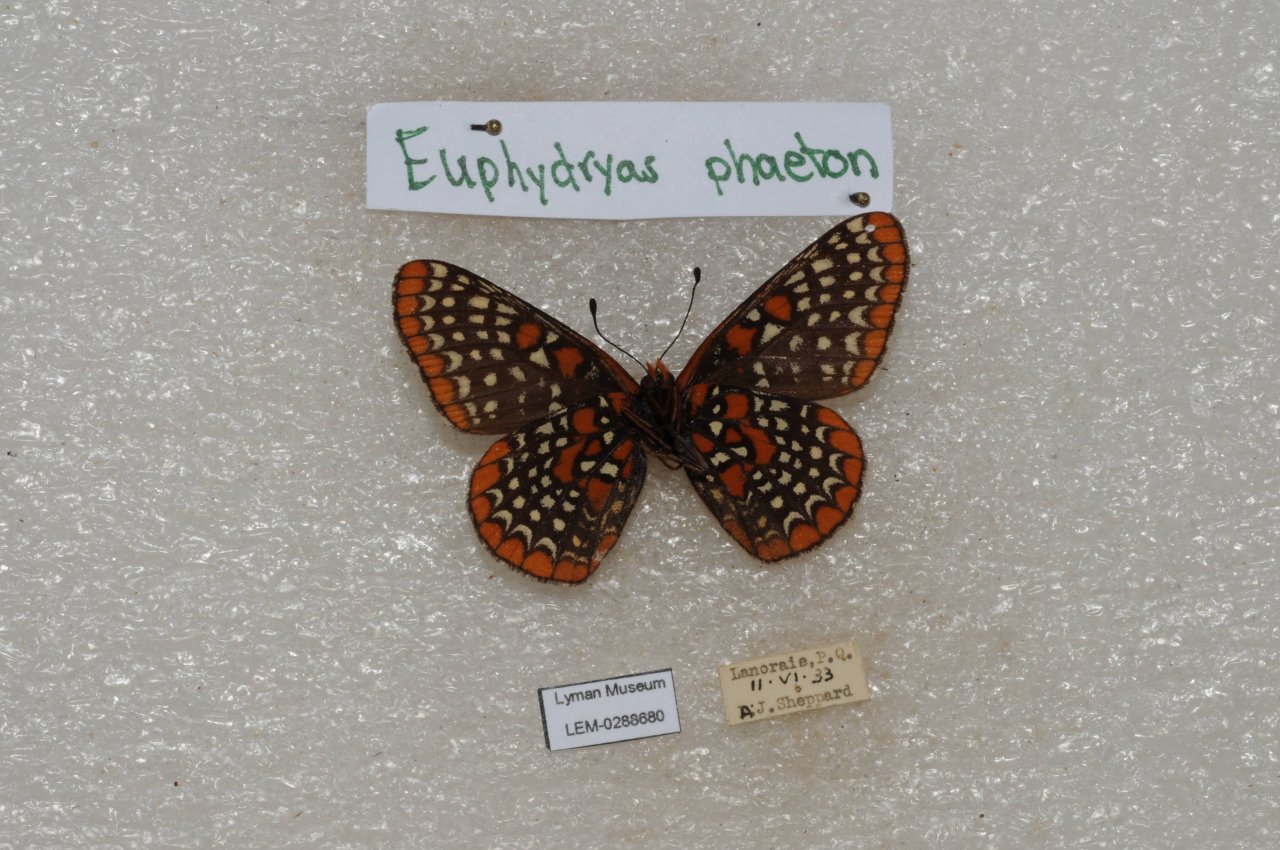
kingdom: Animalia
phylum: Arthropoda
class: Insecta
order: Lepidoptera
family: Nymphalidae
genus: Euphydryas
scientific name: Euphydryas phaeton
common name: Baltimore Checkerspot
